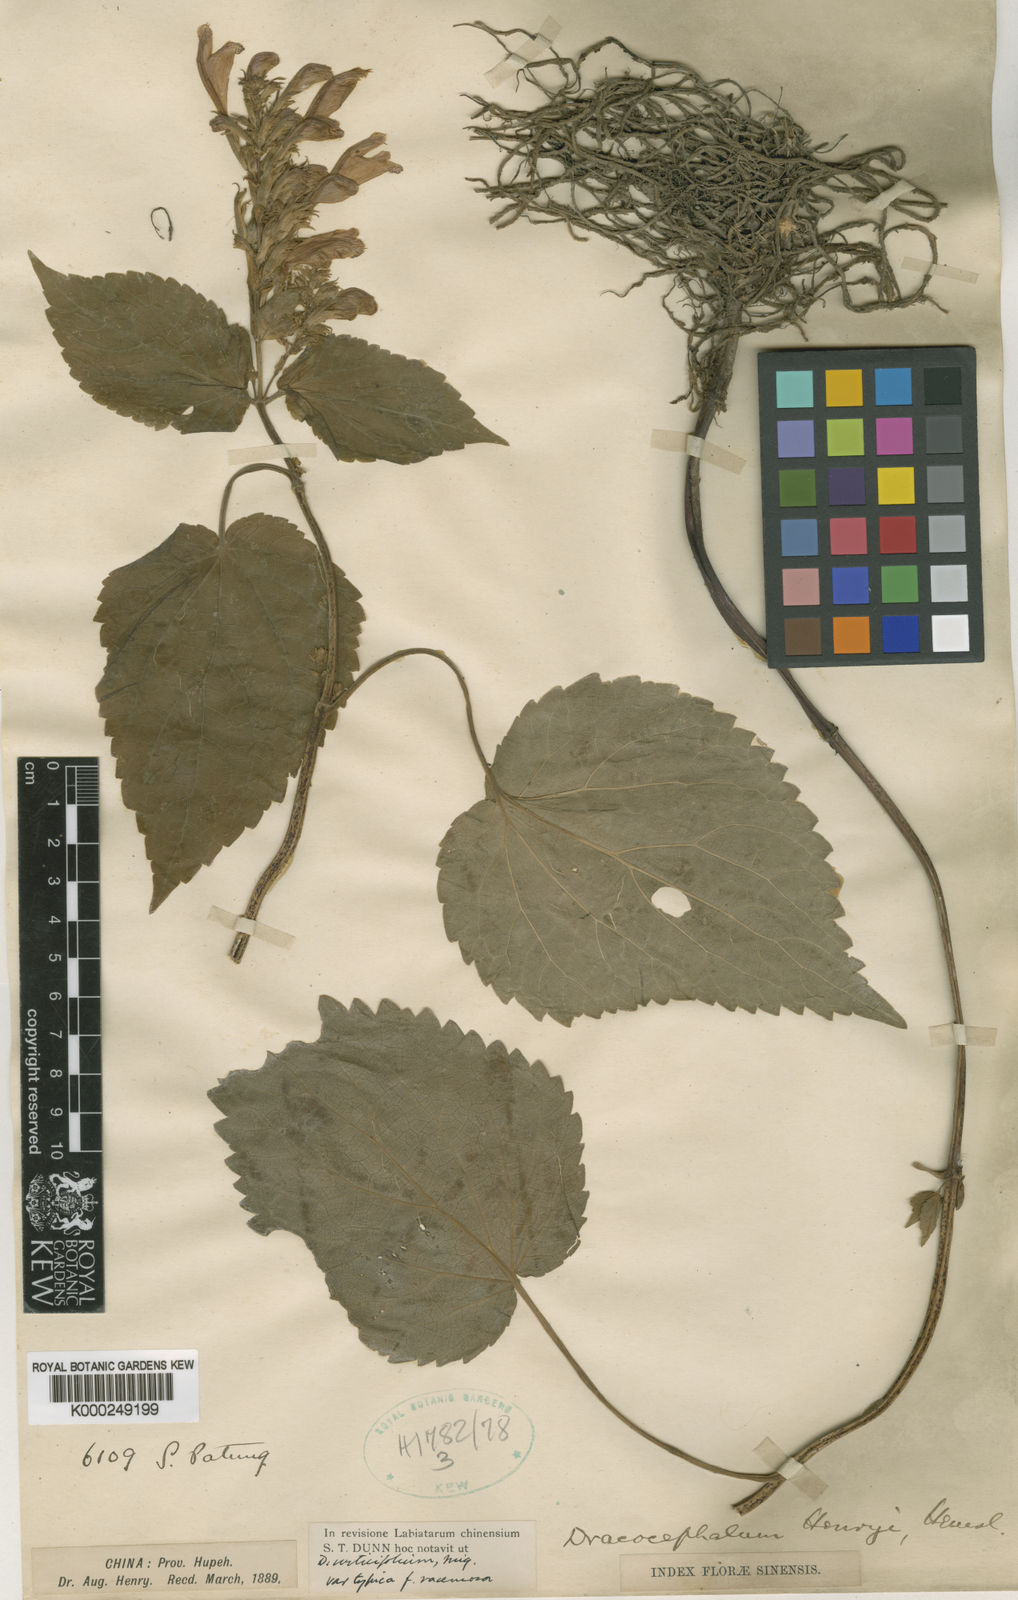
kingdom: Plantae
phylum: Tracheophyta
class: Magnoliopsida
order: Lamiales
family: Lamiaceae
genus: Meehania
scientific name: Meehania henryi
